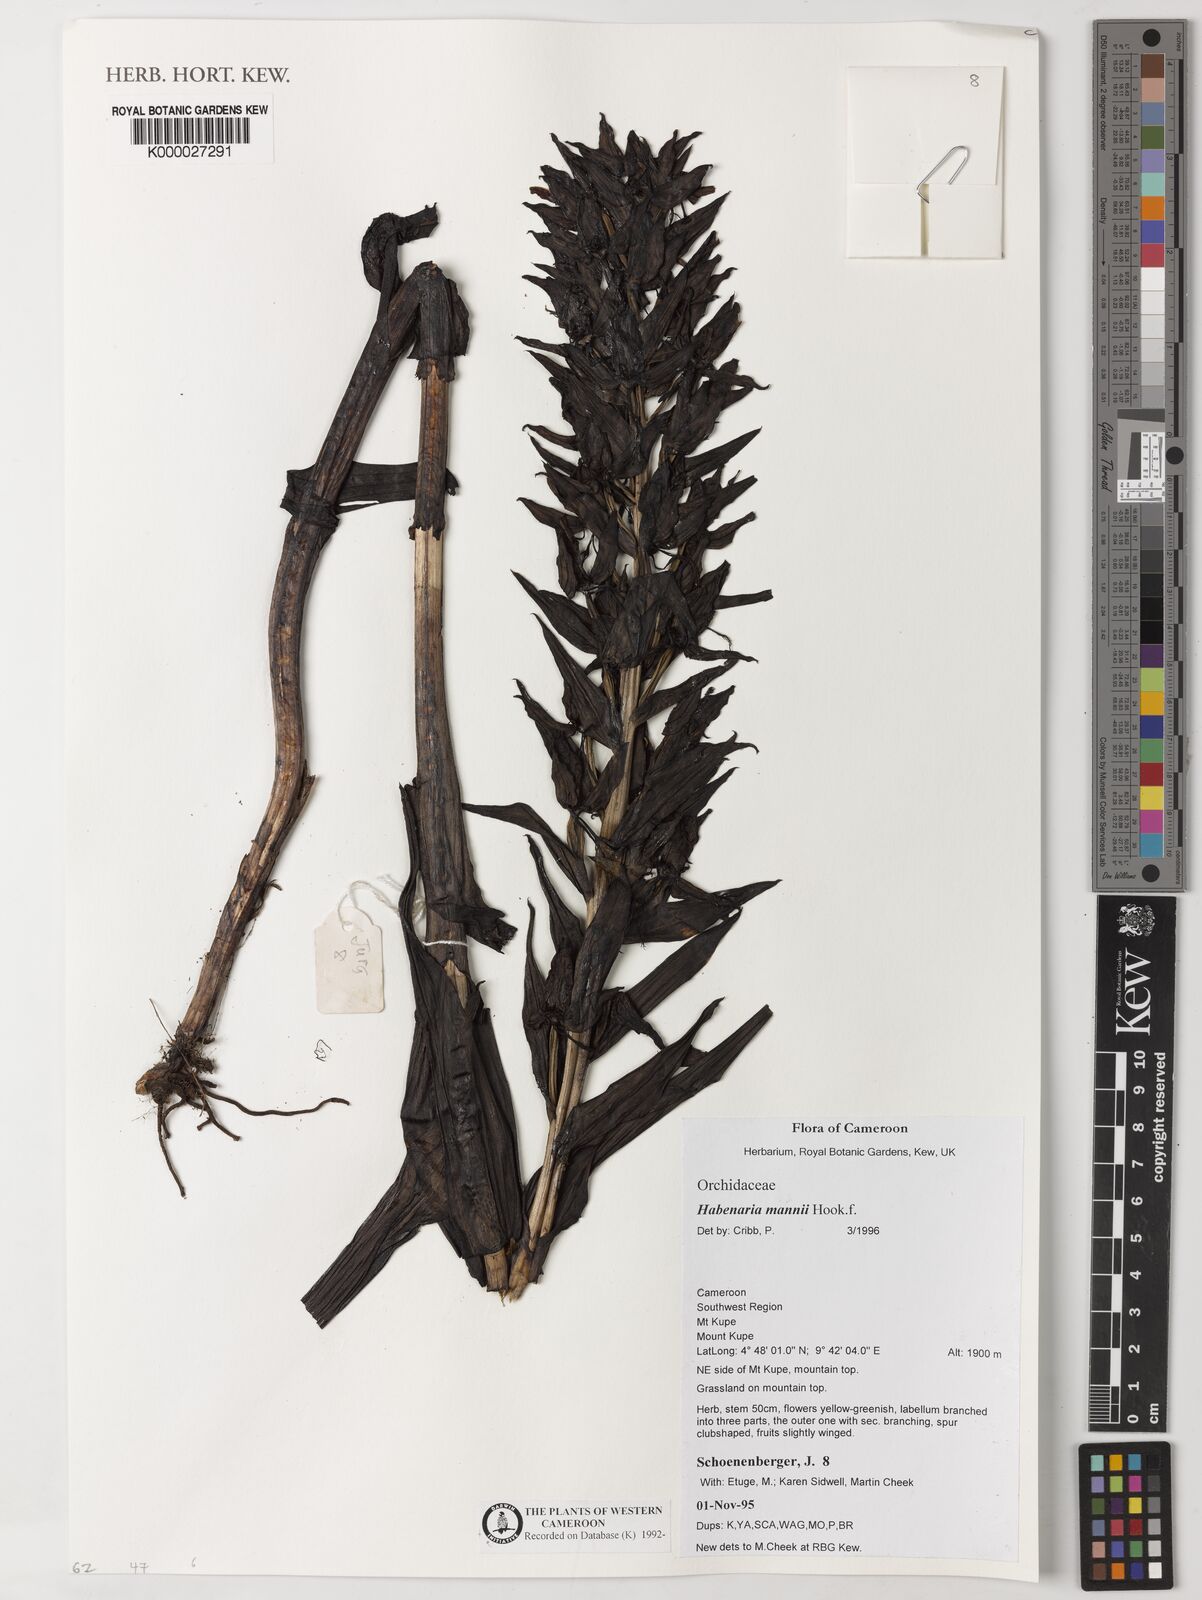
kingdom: Plantae
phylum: Tracheophyta
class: Liliopsida
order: Asparagales
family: Orchidaceae
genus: Habenaria
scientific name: Habenaria mannii
